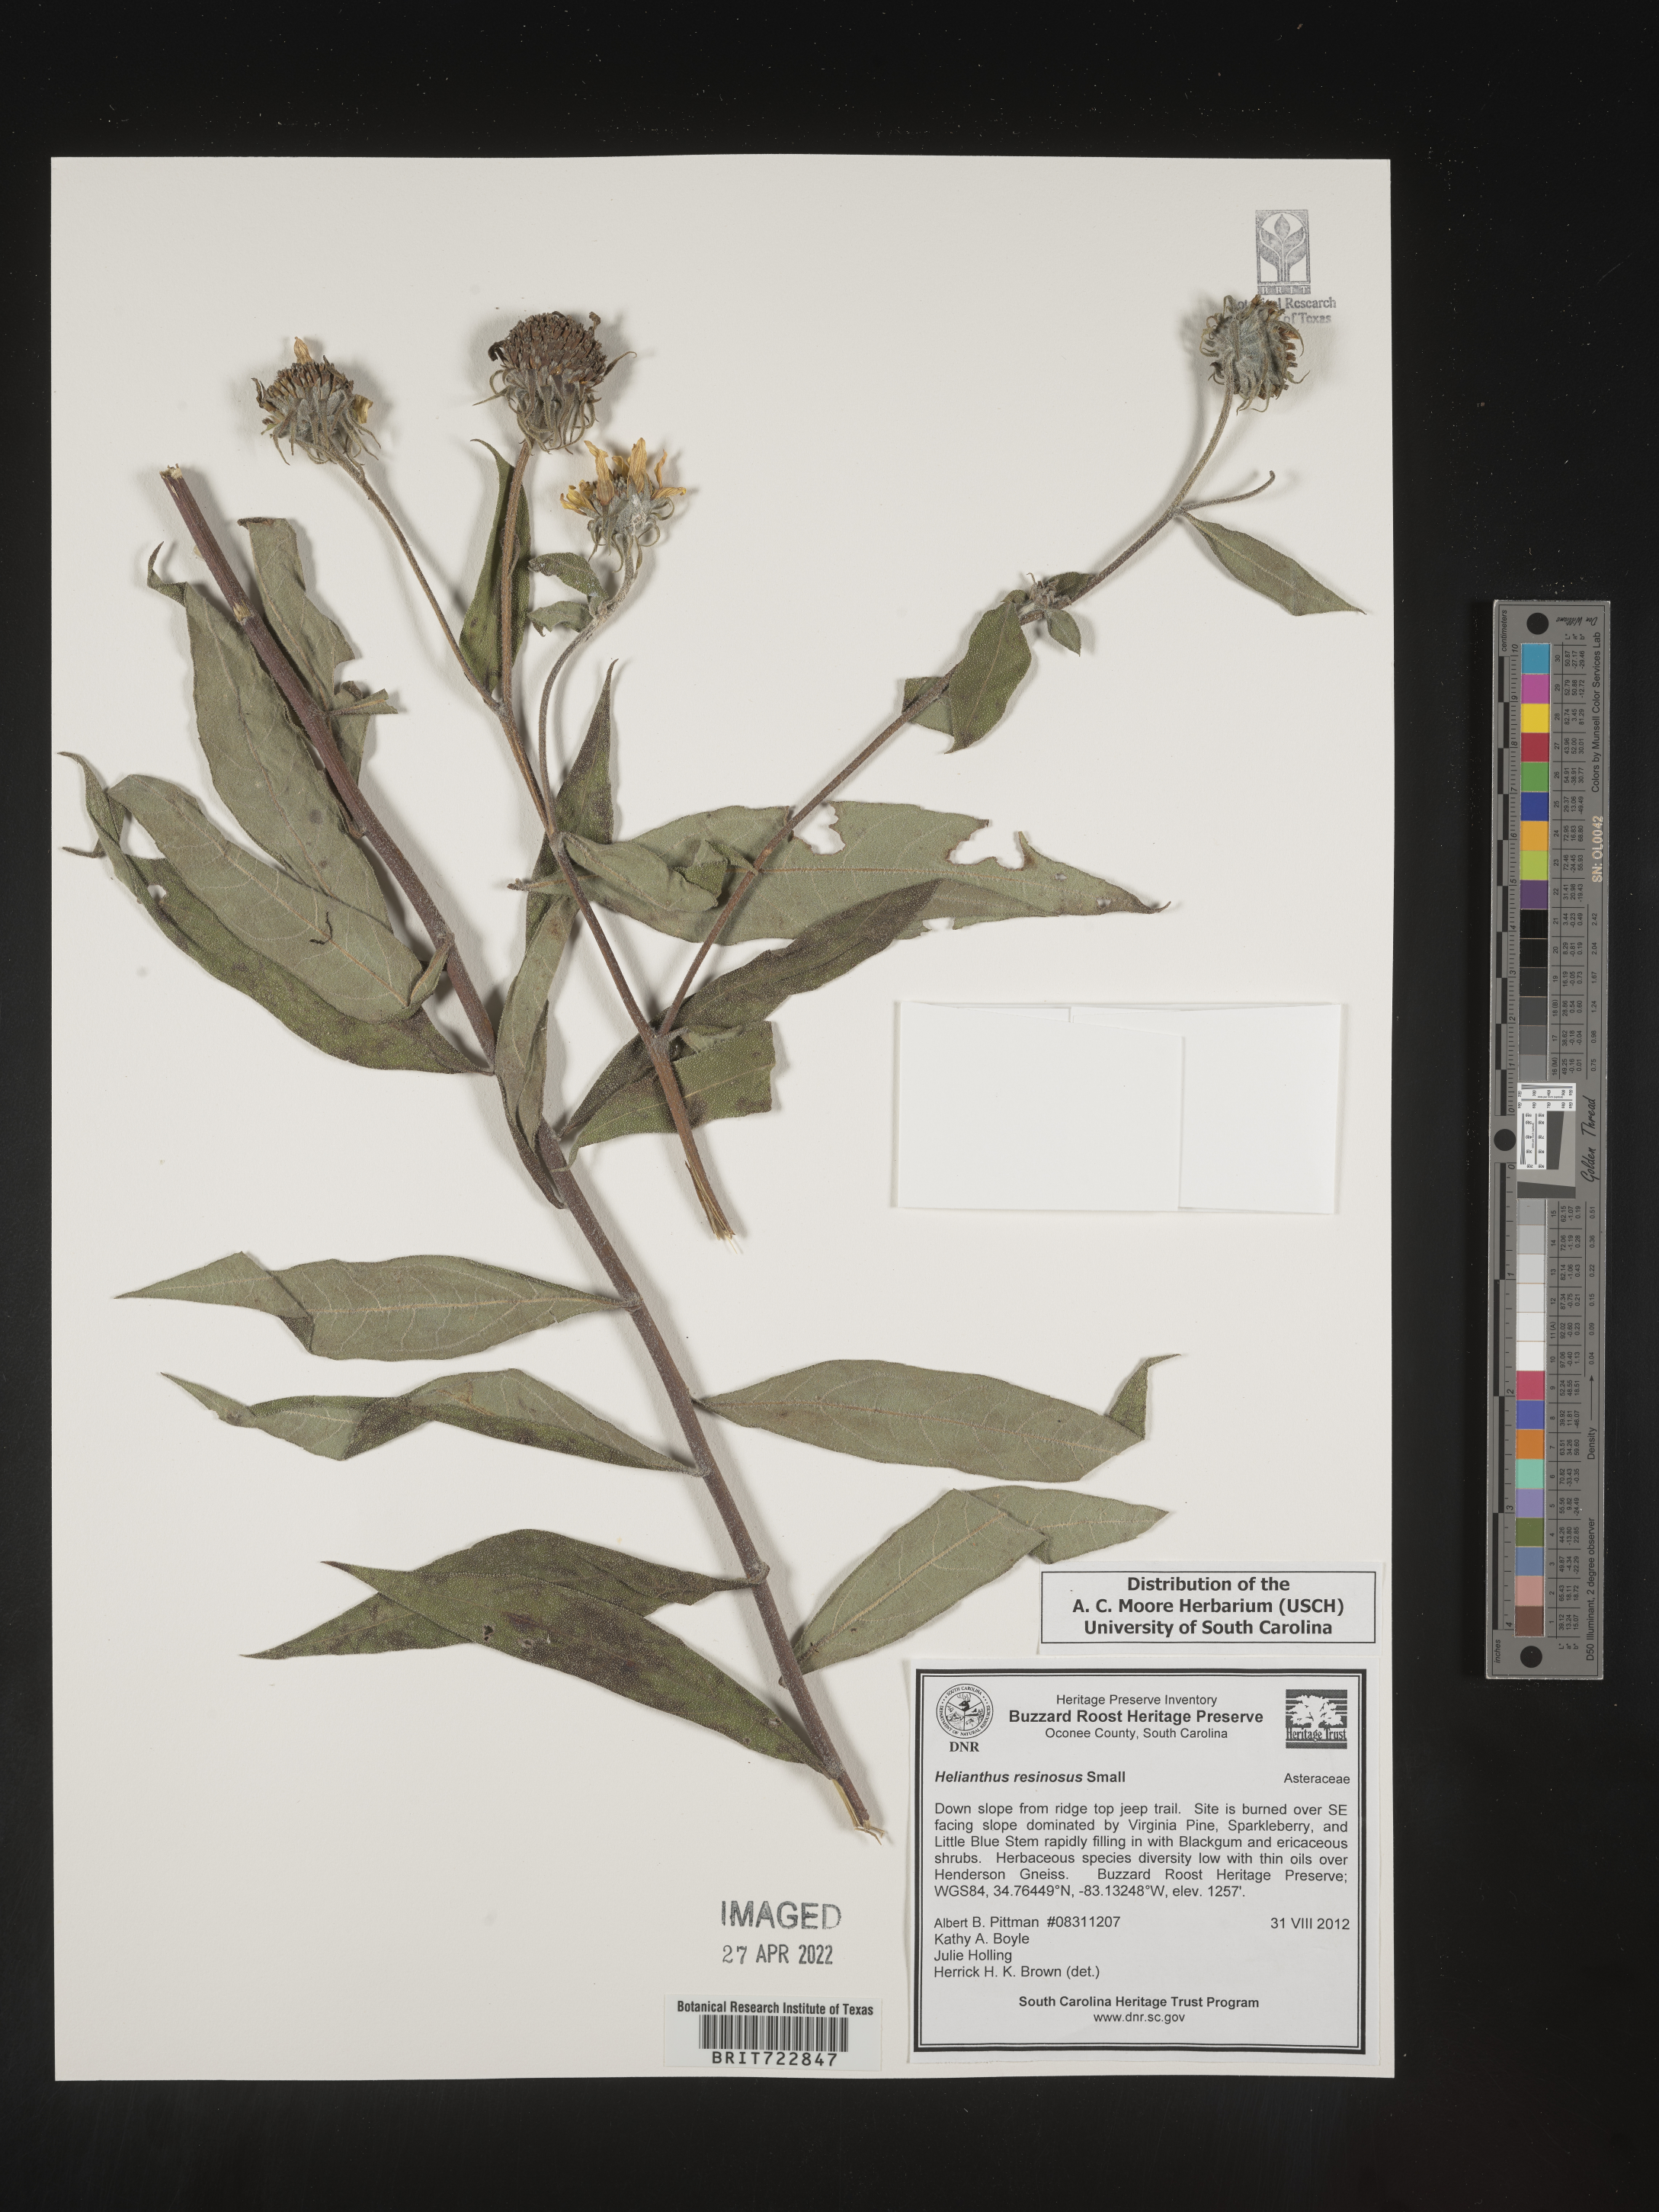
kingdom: Plantae
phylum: Tracheophyta
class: Magnoliopsida
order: Asterales
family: Asteraceae
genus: Helianthus
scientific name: Helianthus resinosus
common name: Resin-dot sunflower
